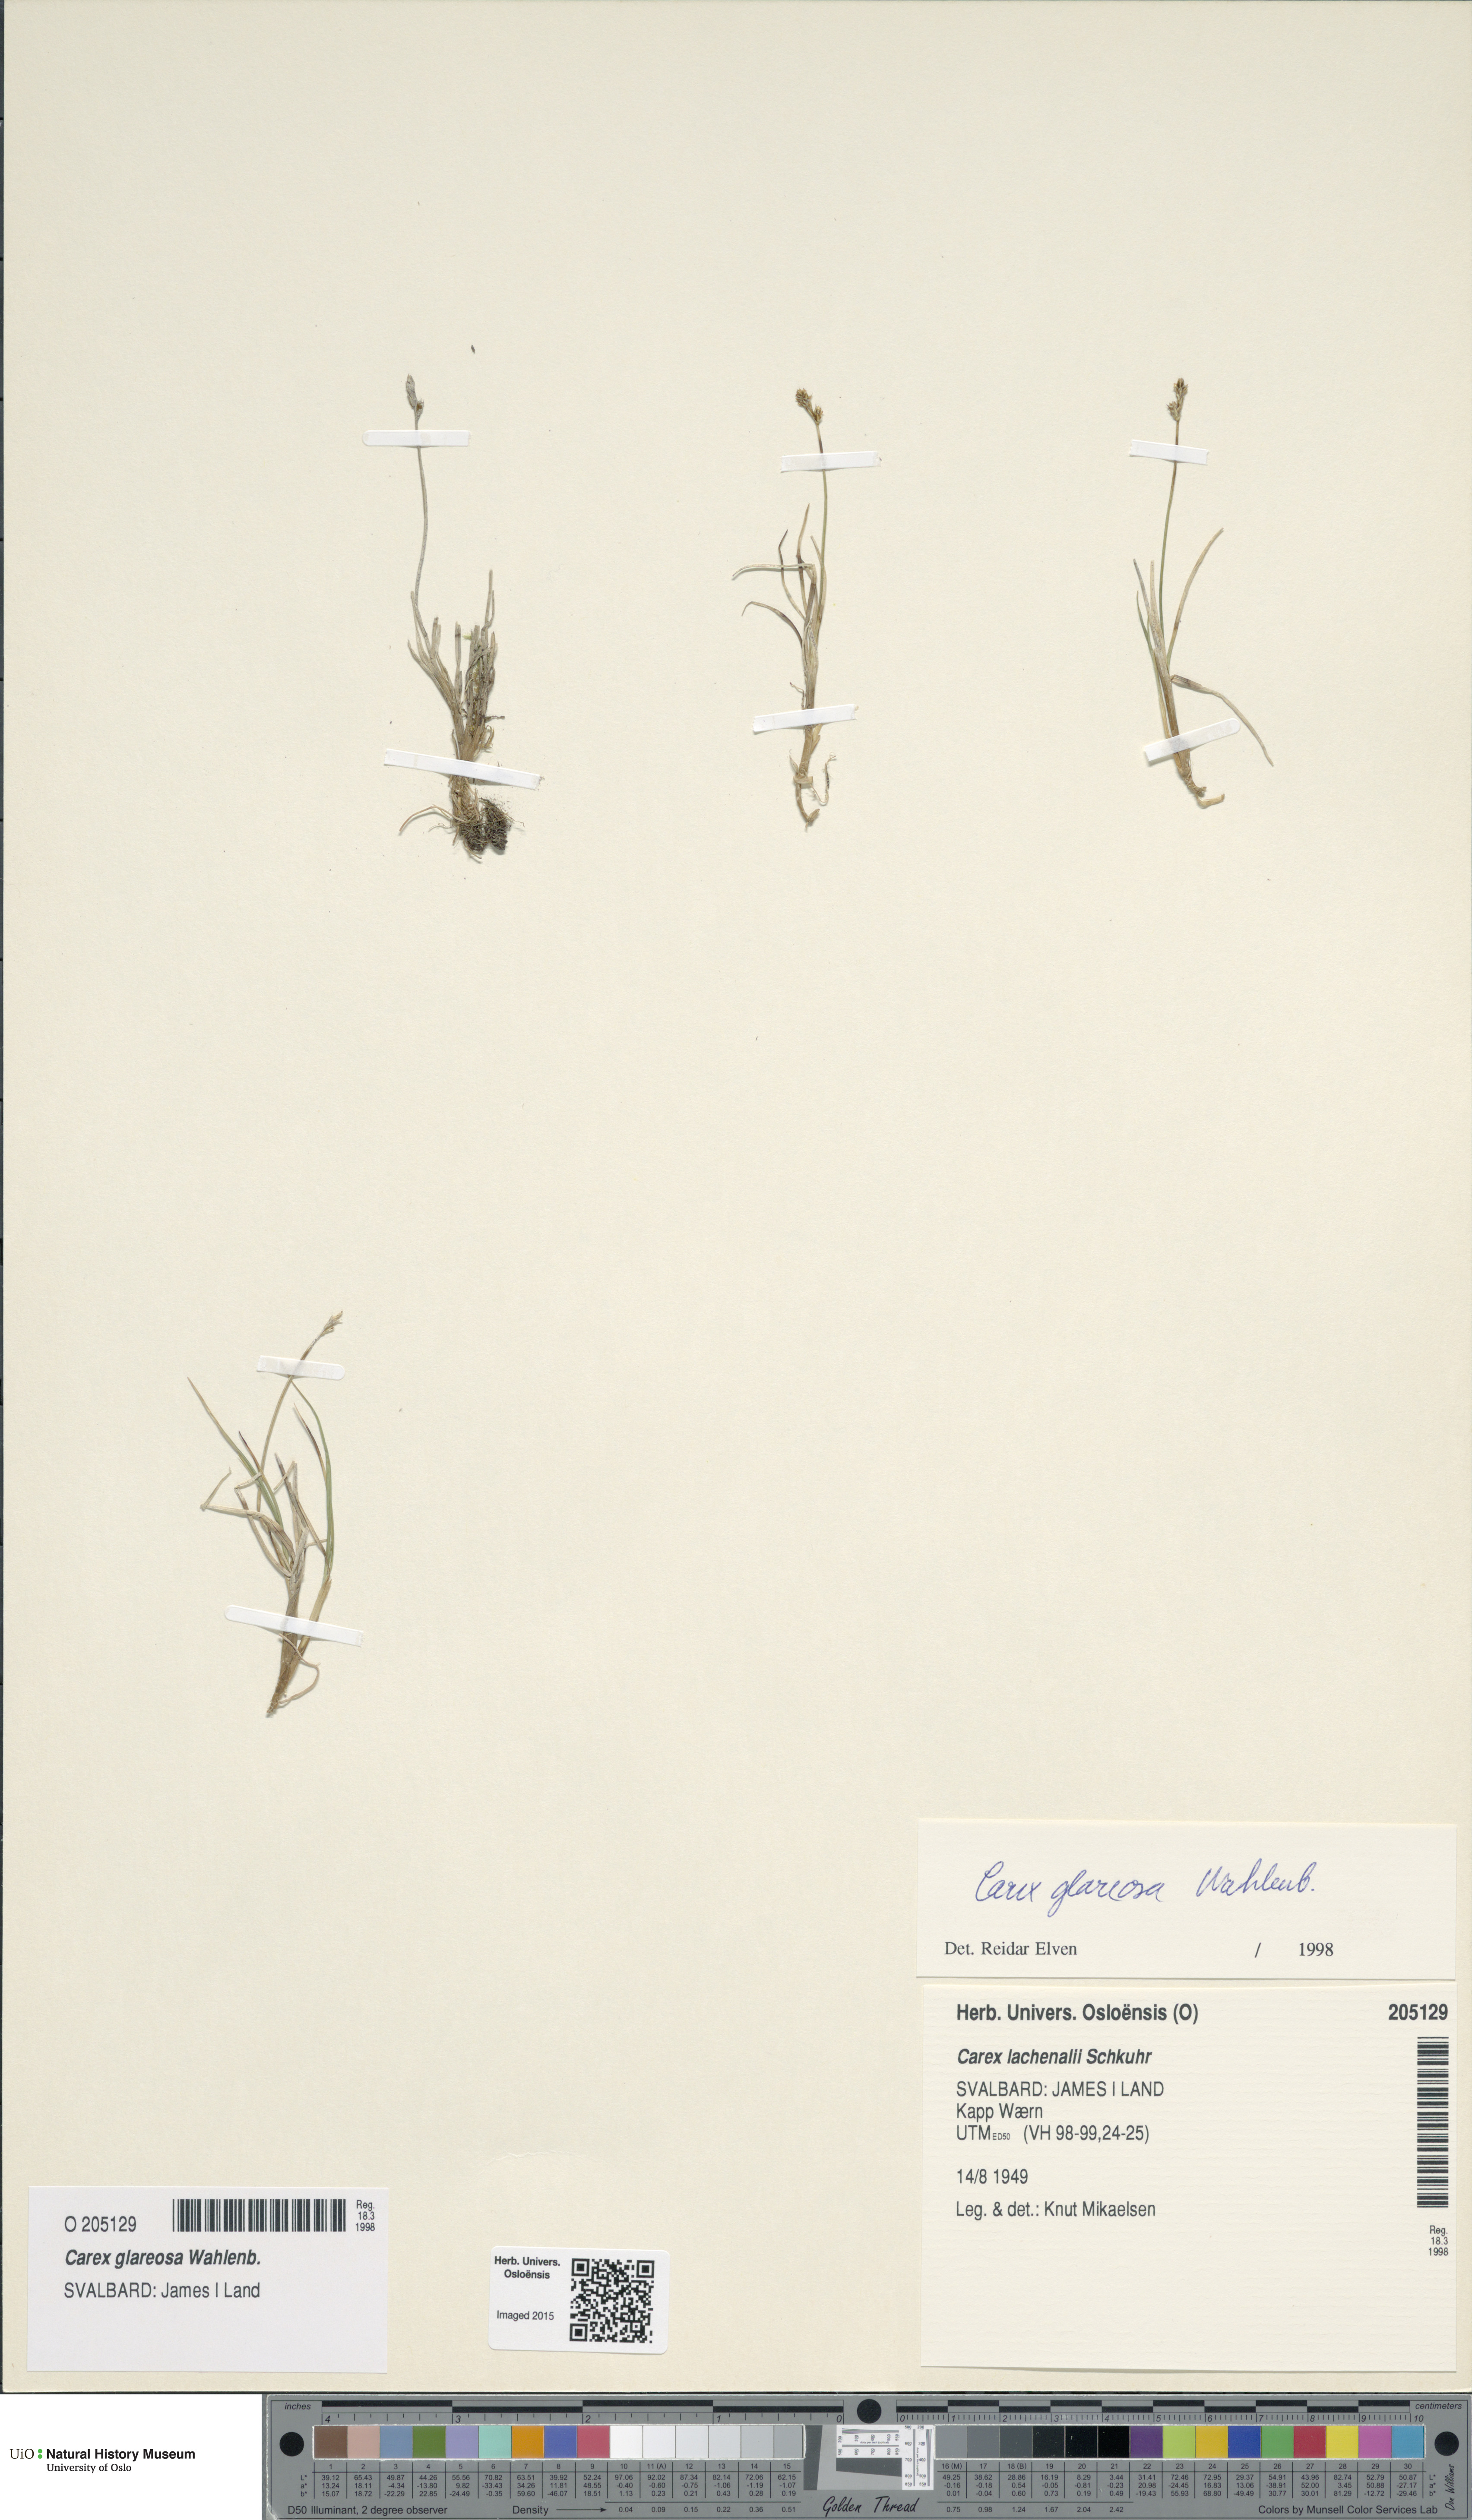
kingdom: Plantae
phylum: Tracheophyta
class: Liliopsida
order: Poales
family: Cyperaceae
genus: Carex
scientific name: Carex glareosa
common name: Clustered sedge
